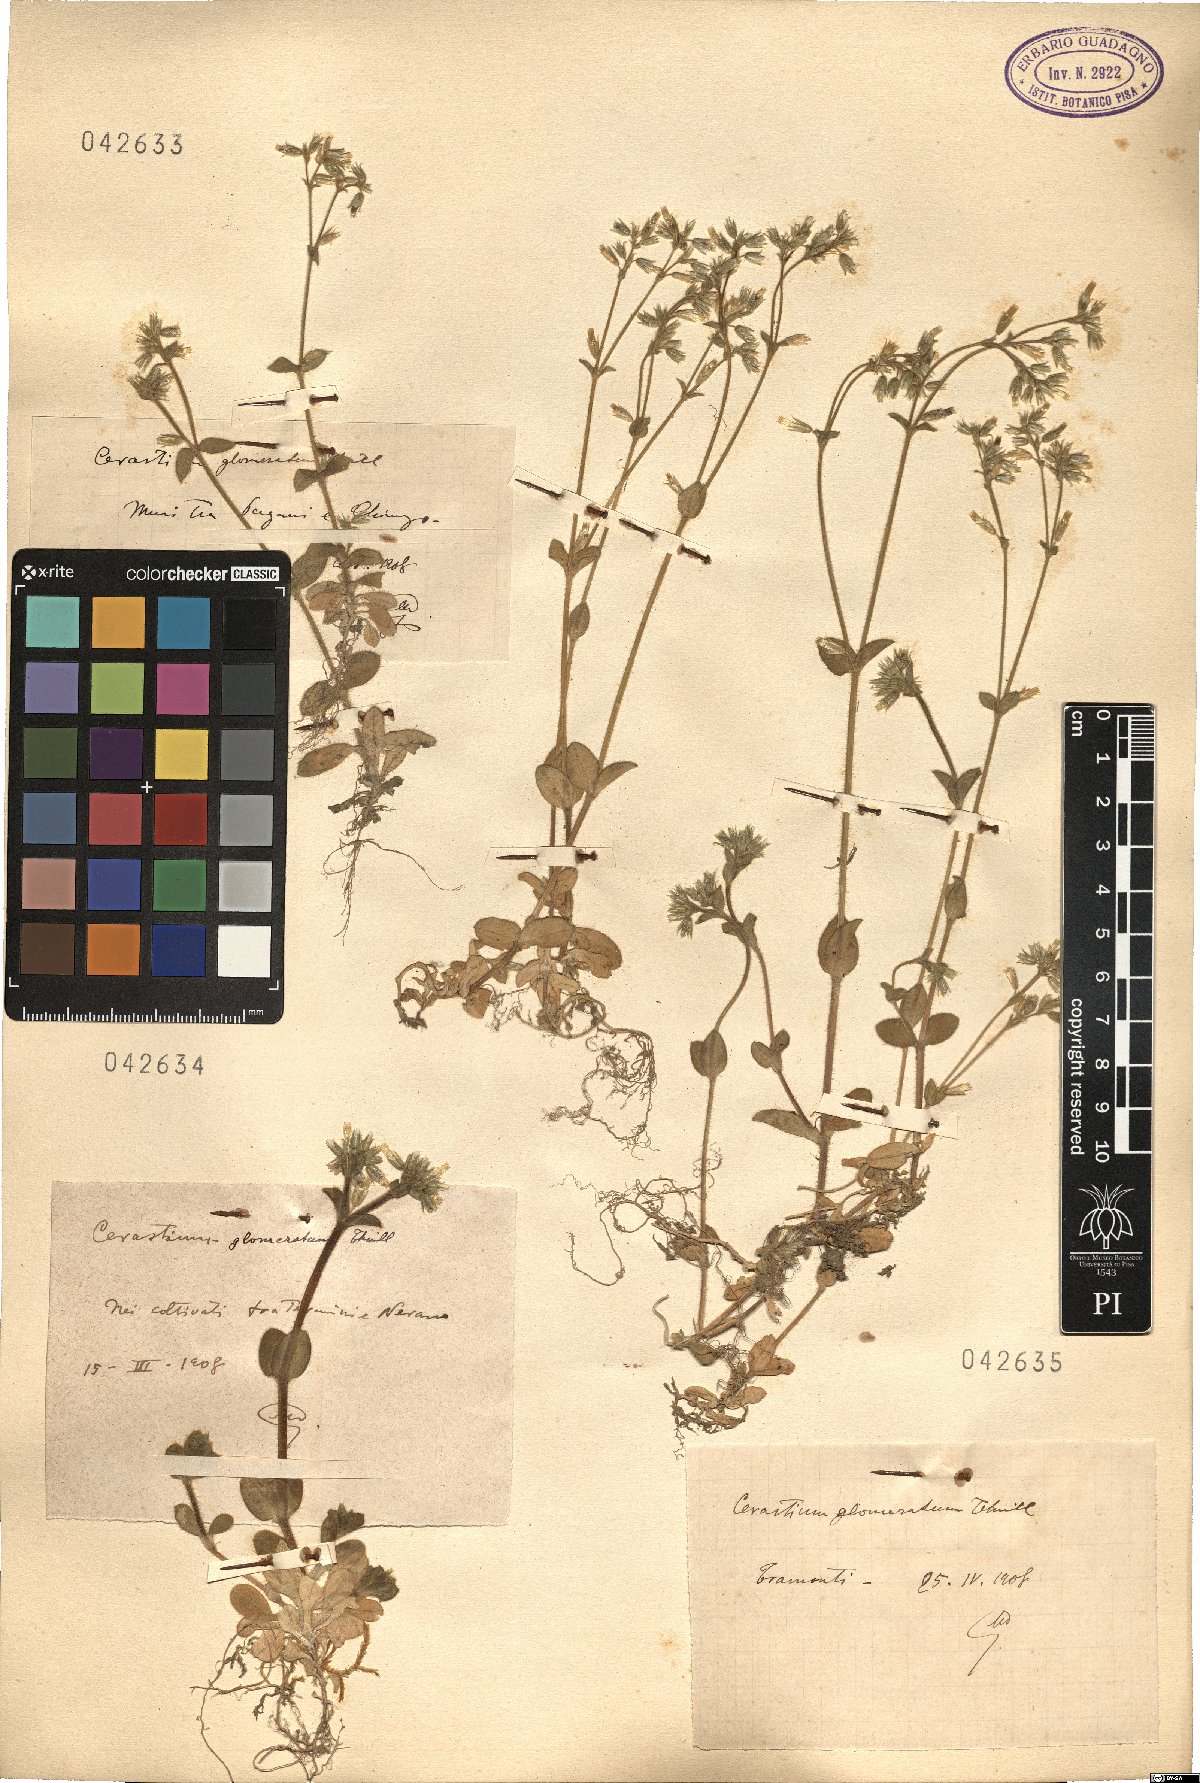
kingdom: Plantae
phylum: Tracheophyta
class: Magnoliopsida
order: Caryophyllales
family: Caryophyllaceae
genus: Cerastium
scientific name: Cerastium glomeratum
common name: Sticky chickweed
